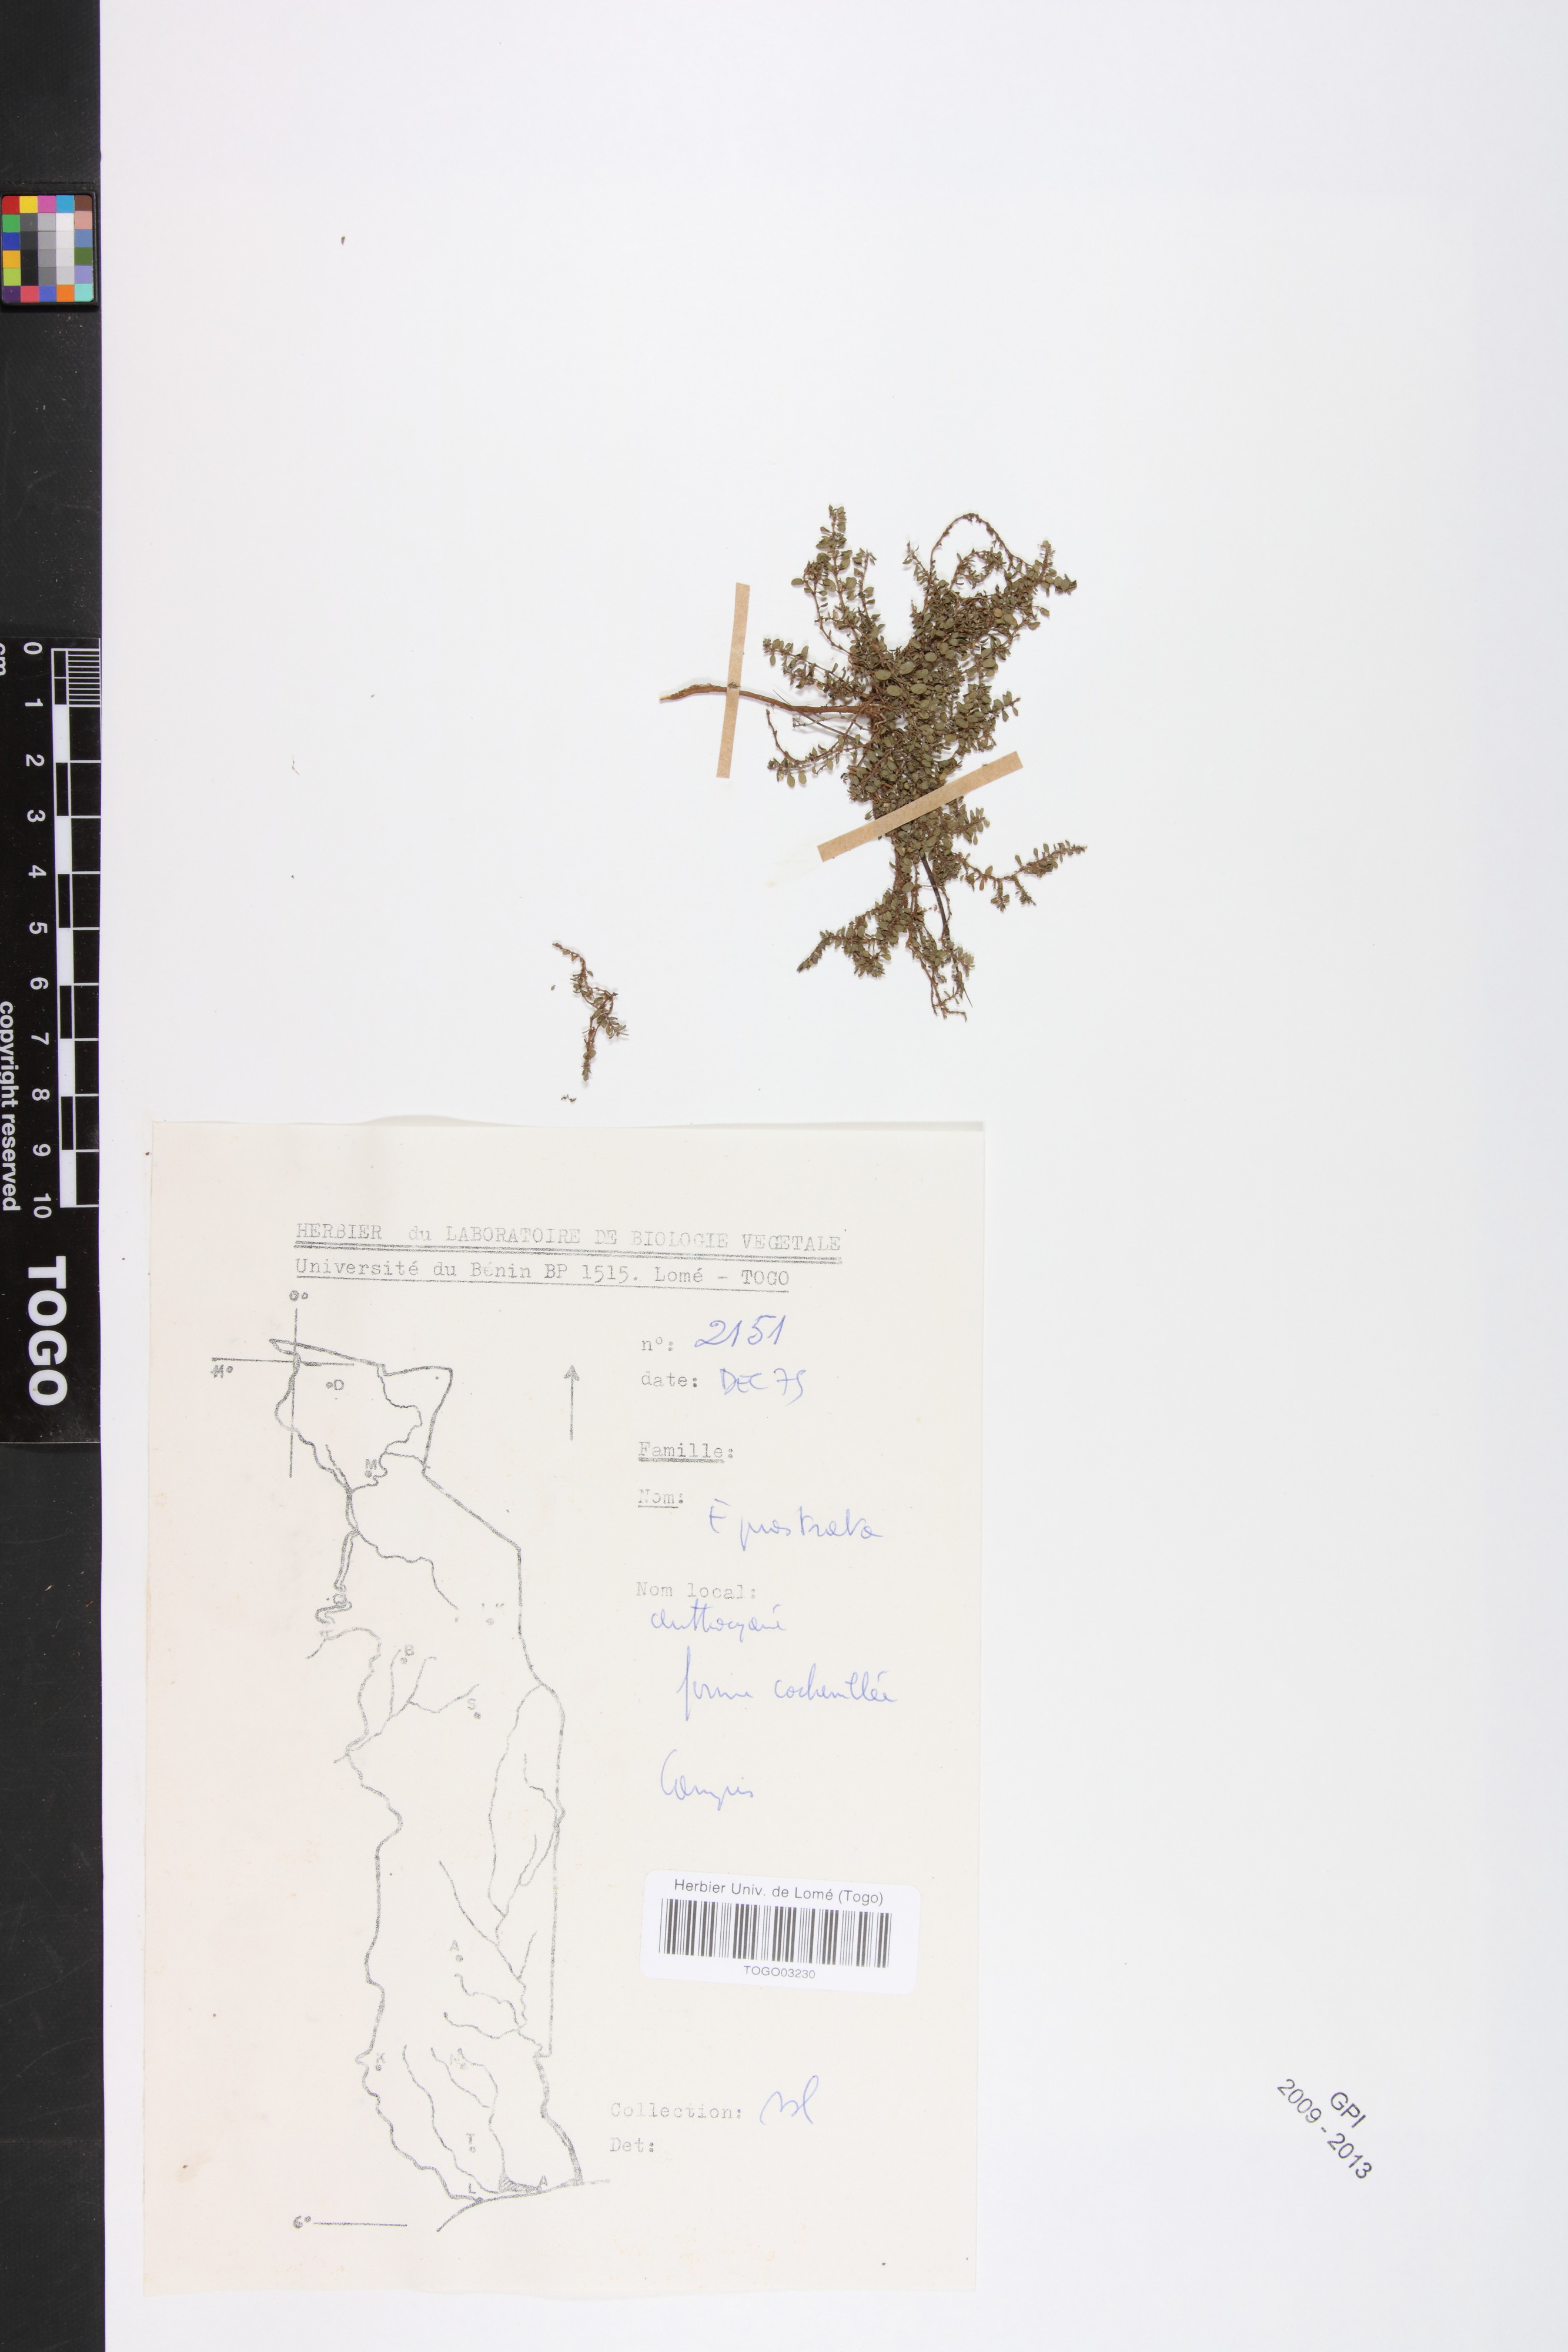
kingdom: Plantae
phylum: Tracheophyta
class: Magnoliopsida
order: Malpighiales
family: Euphorbiaceae
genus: Euphorbia
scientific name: Euphorbia prostrata
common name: Prostrate sandmat
